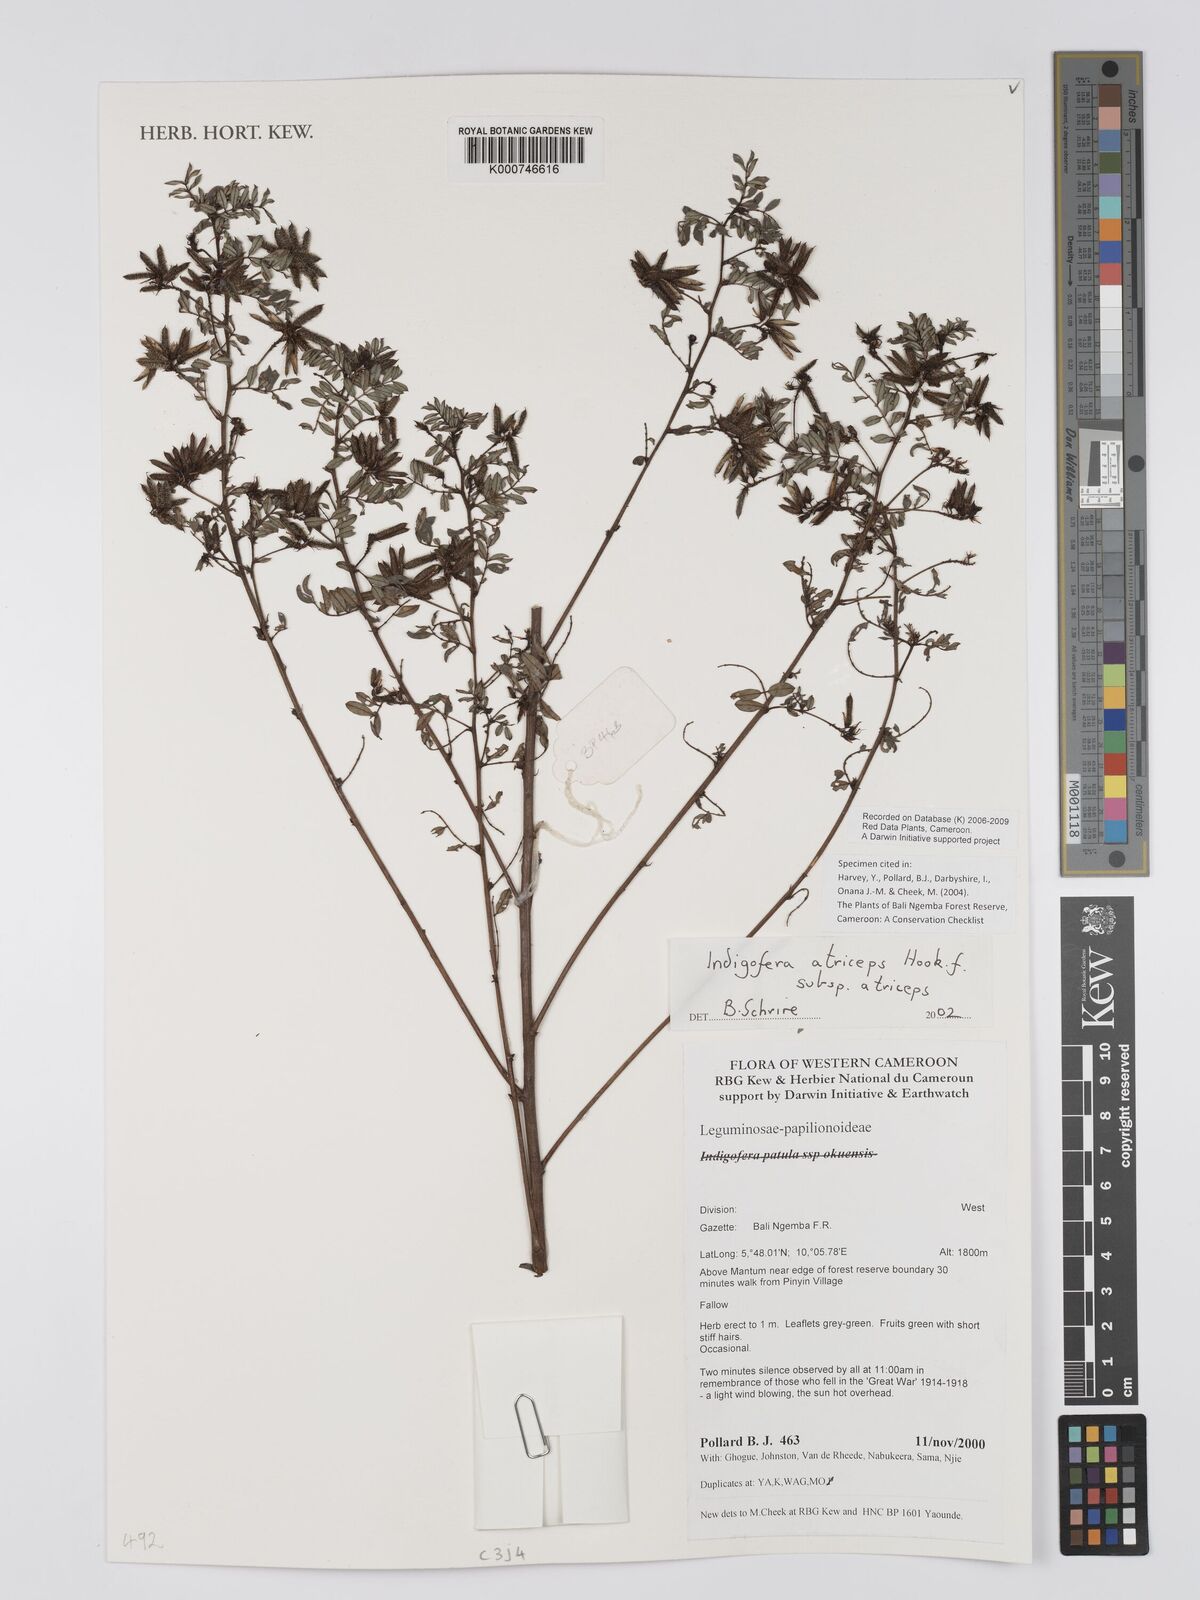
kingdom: Plantae
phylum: Tracheophyta
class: Magnoliopsida
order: Fabales
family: Fabaceae
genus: Indigofera
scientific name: Indigofera atriceps
